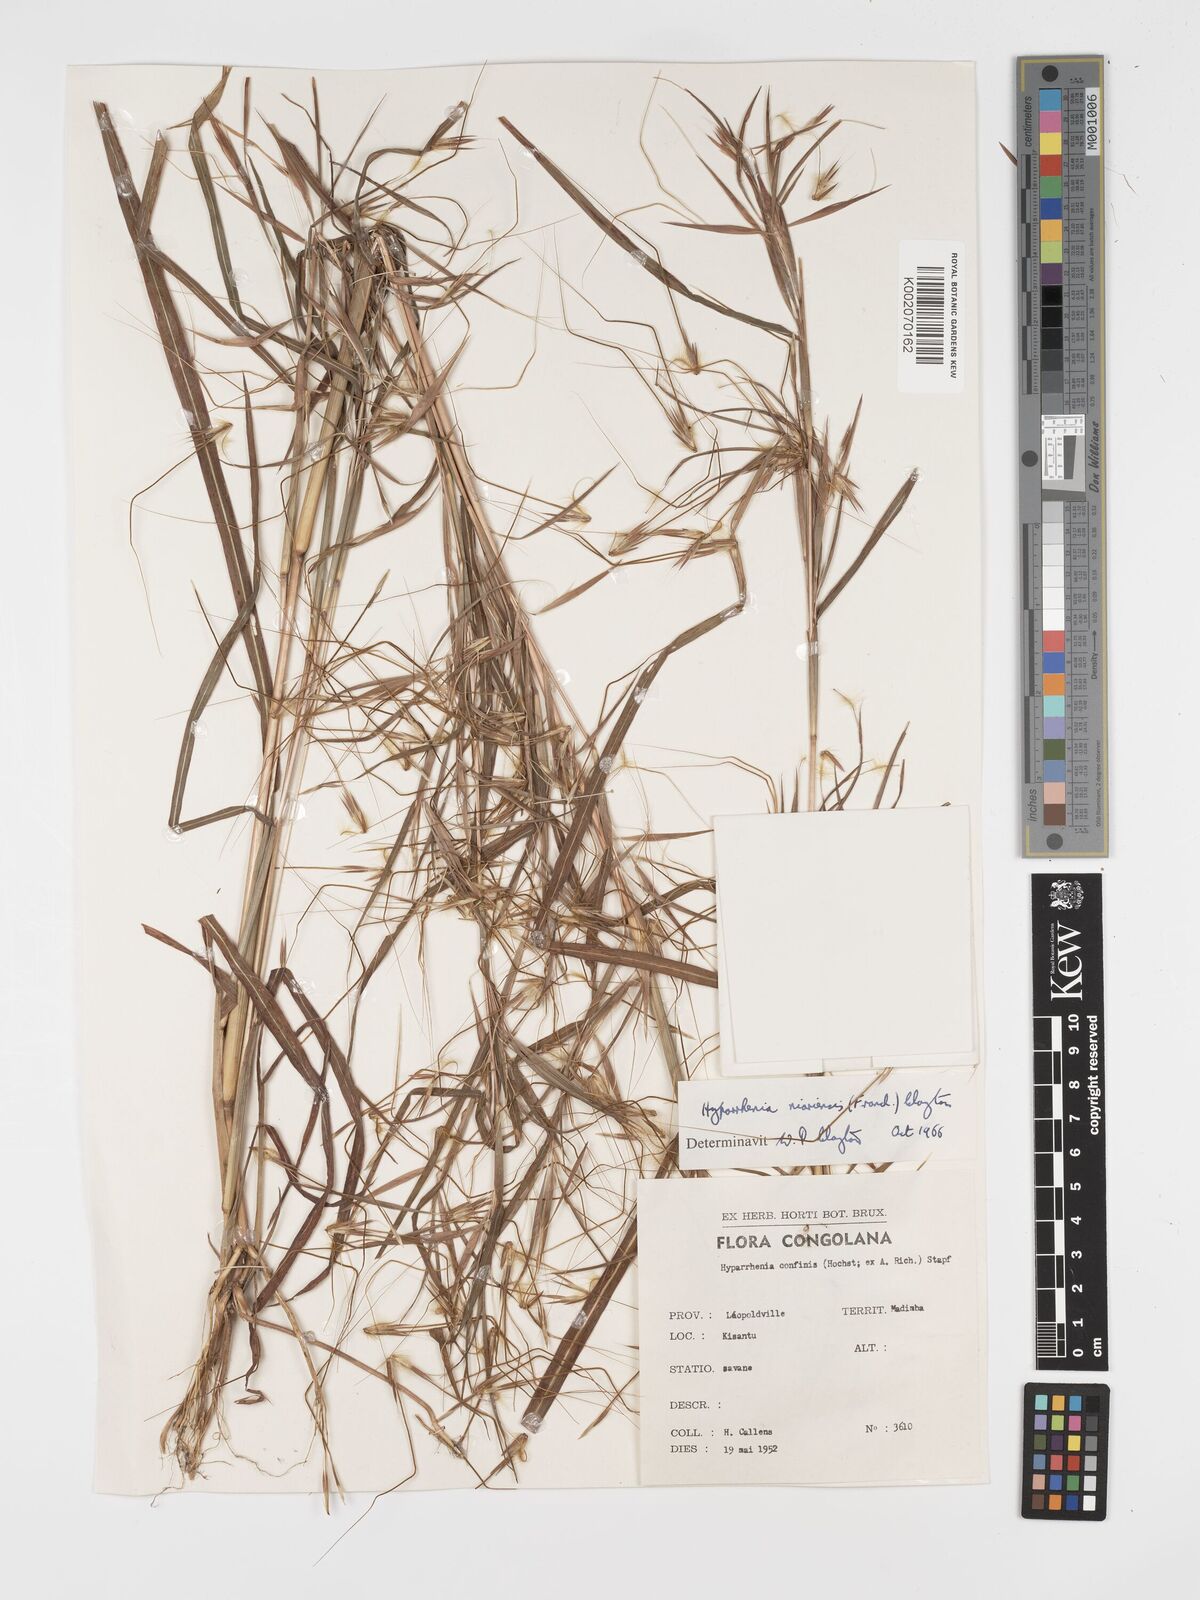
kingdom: Plantae
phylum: Tracheophyta
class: Liliopsida
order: Poales
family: Poaceae
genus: Hyparrhenia
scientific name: Hyparrhenia niariensis
